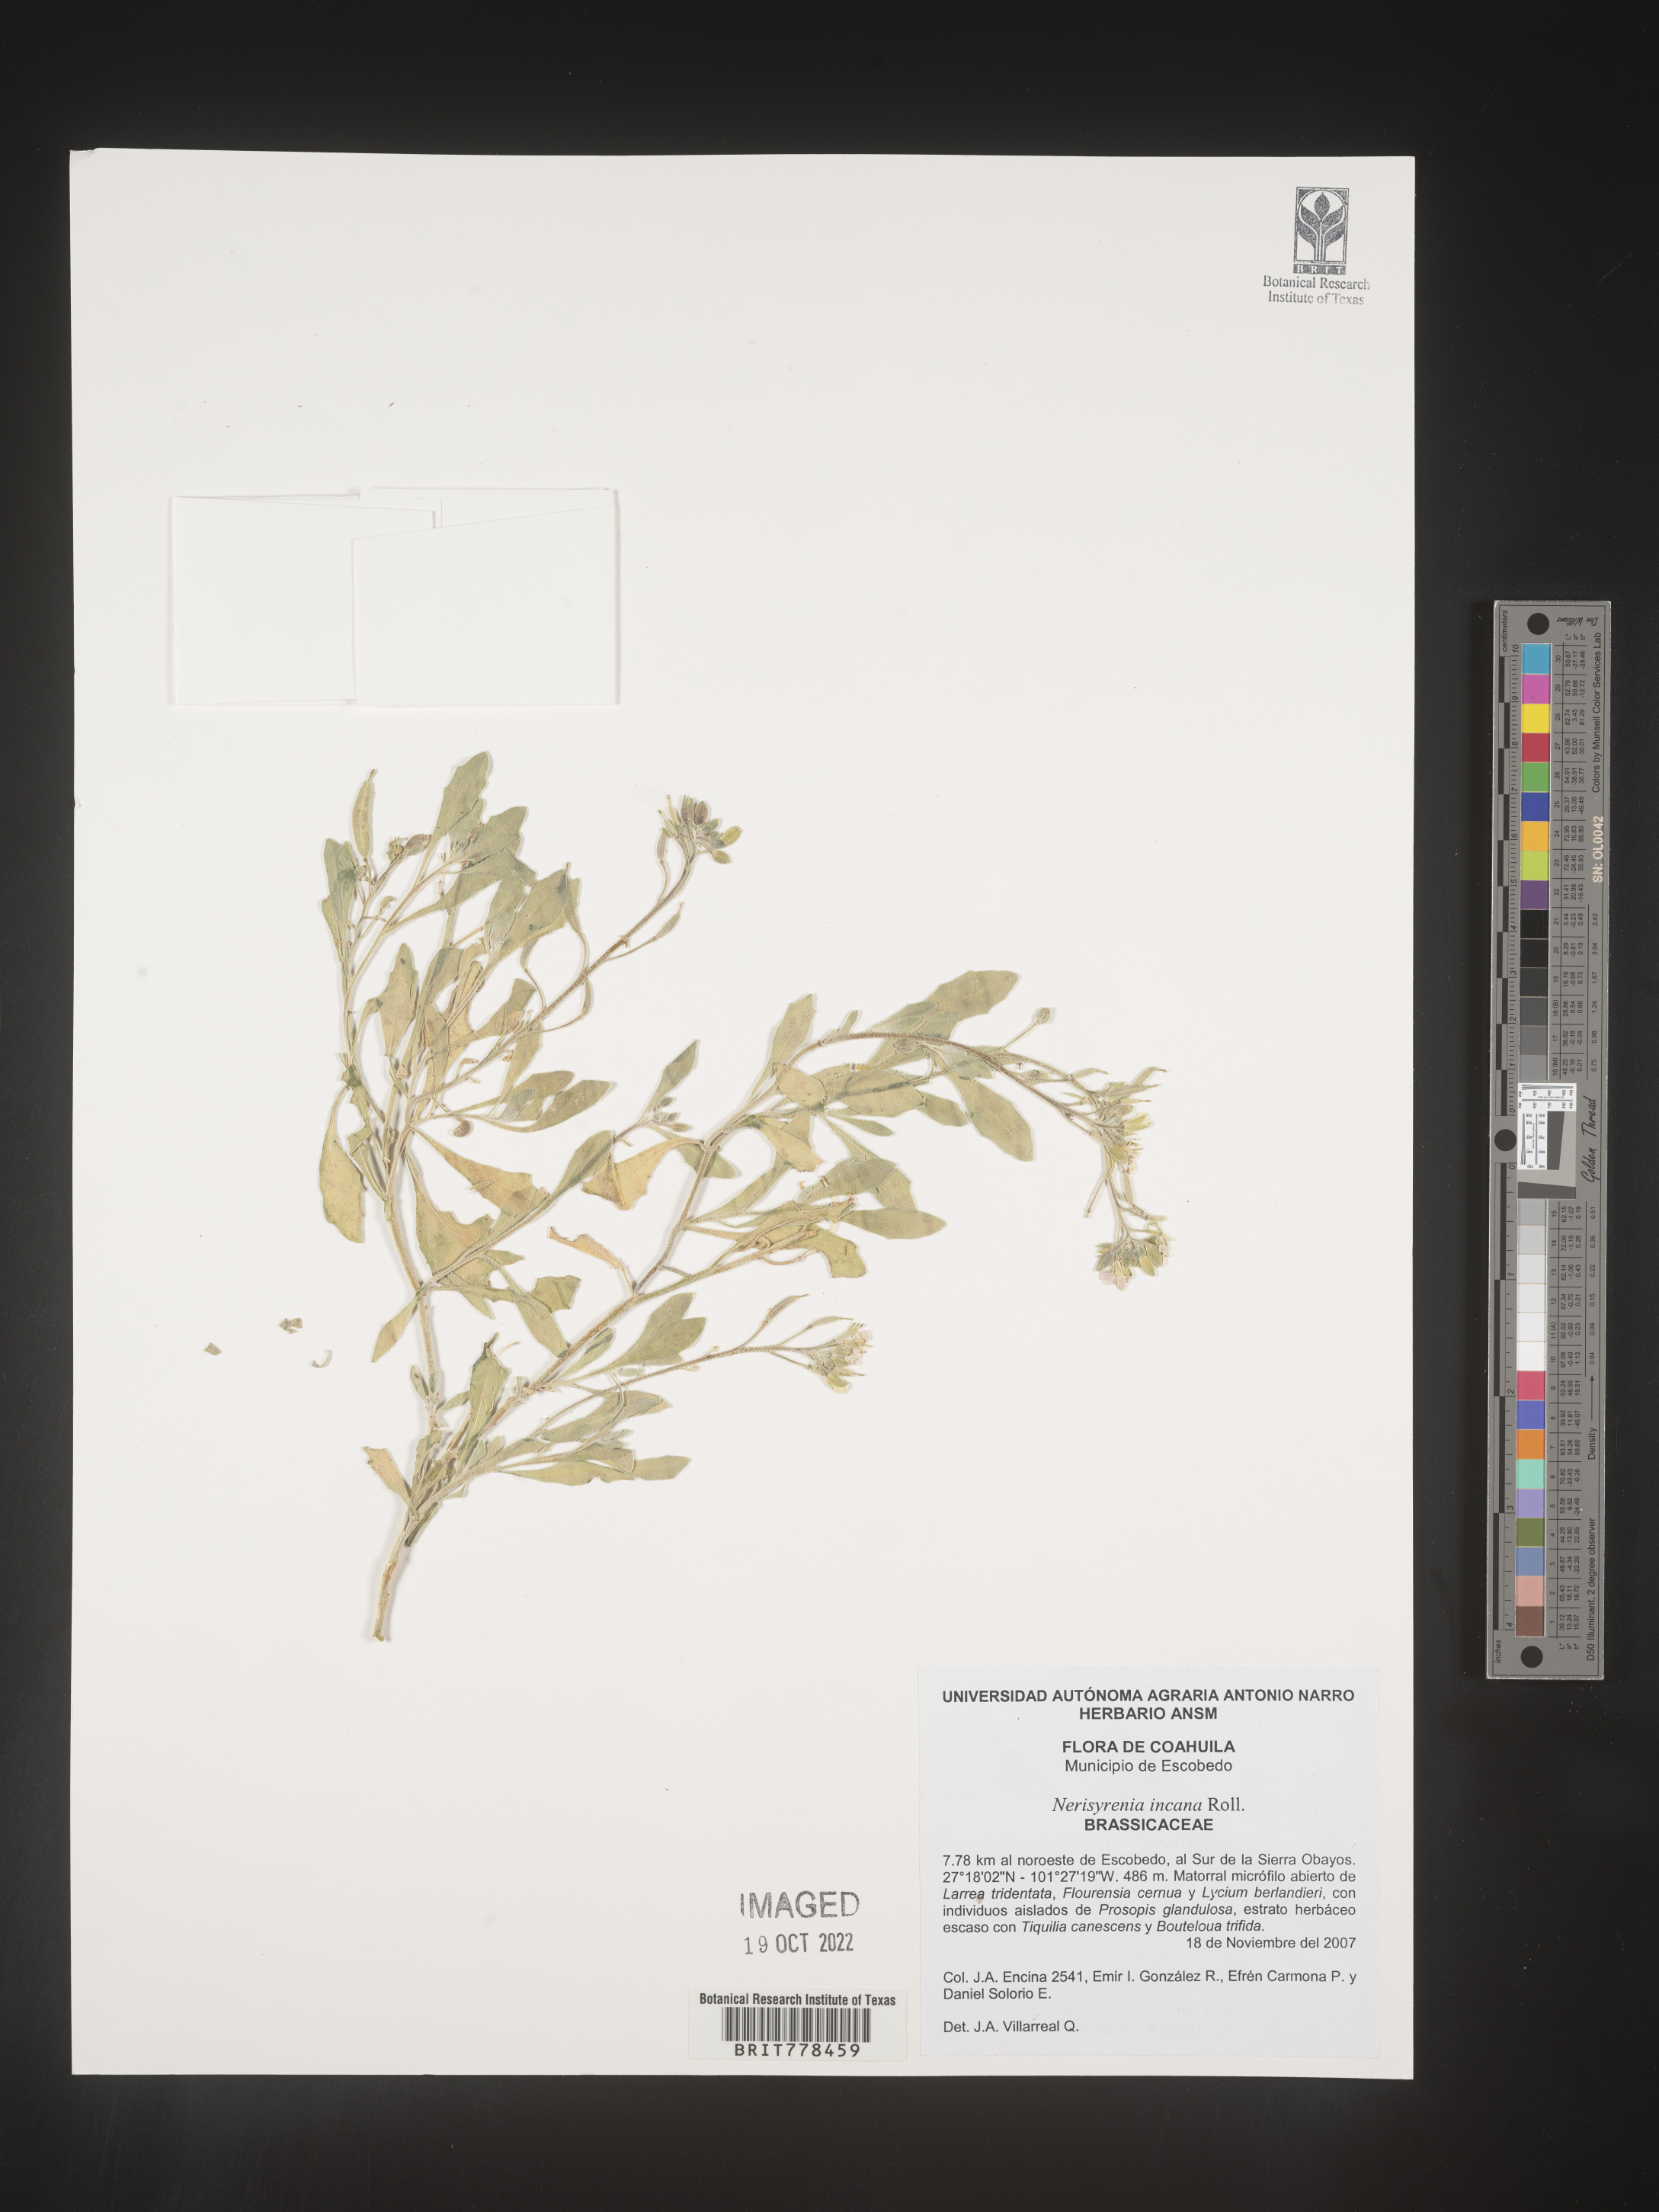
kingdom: Plantae
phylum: Tracheophyta
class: Magnoliopsida
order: Brassicales
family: Brassicaceae
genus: Nerisyrenia
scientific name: Nerisyrenia
